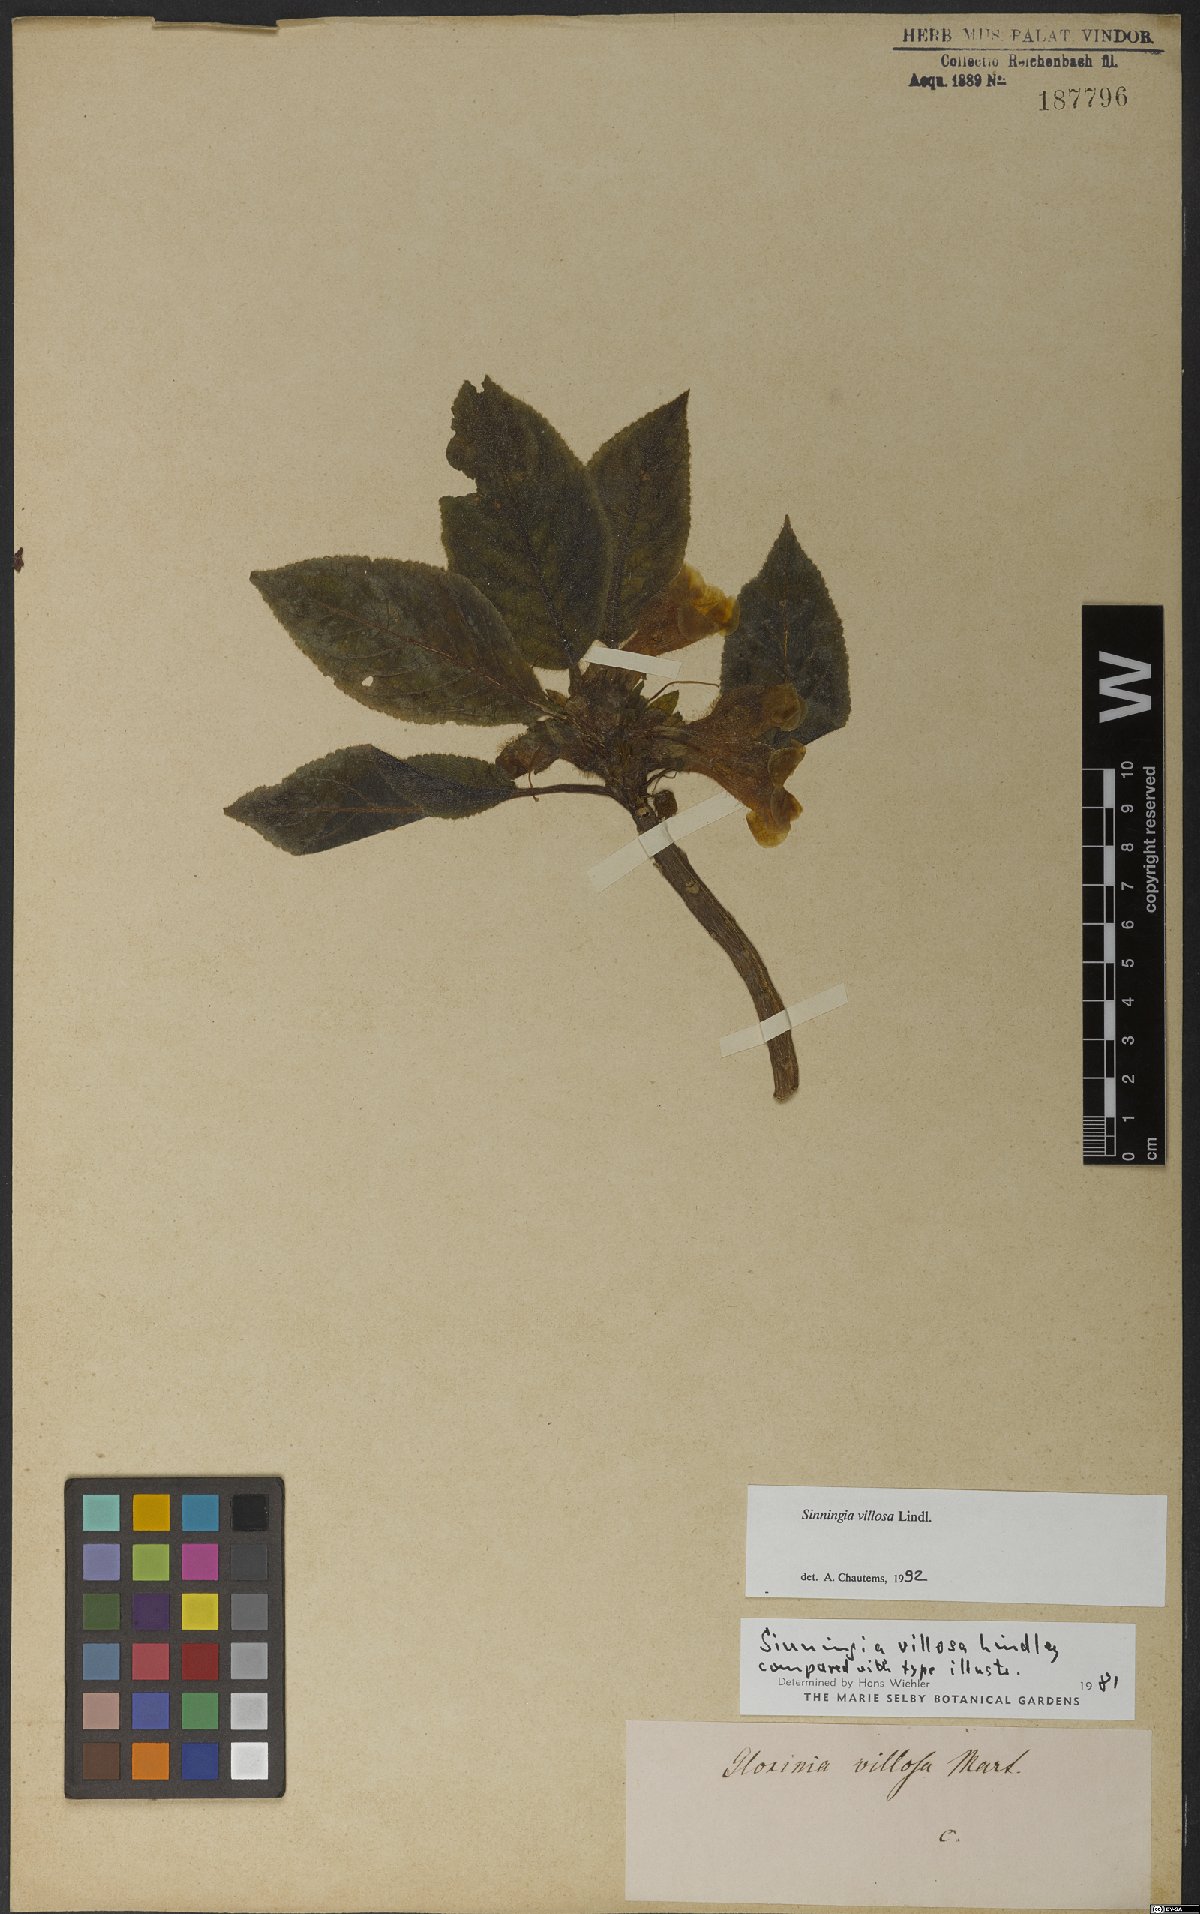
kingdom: Plantae
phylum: Tracheophyta
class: Magnoliopsida
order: Lamiales
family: Gesneriaceae
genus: Sinningia
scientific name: Sinningia villosa
